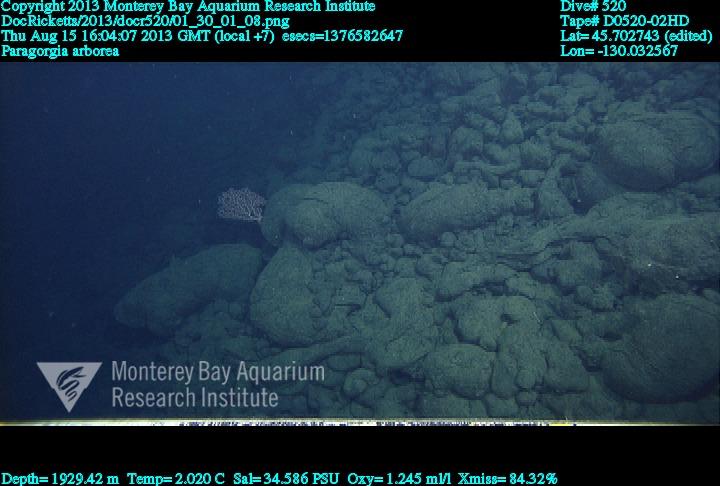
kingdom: Animalia
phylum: Cnidaria
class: Anthozoa
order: Scleralcyonacea
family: Coralliidae
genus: Paragorgia
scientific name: Paragorgia arborea
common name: Bubble gum coral
